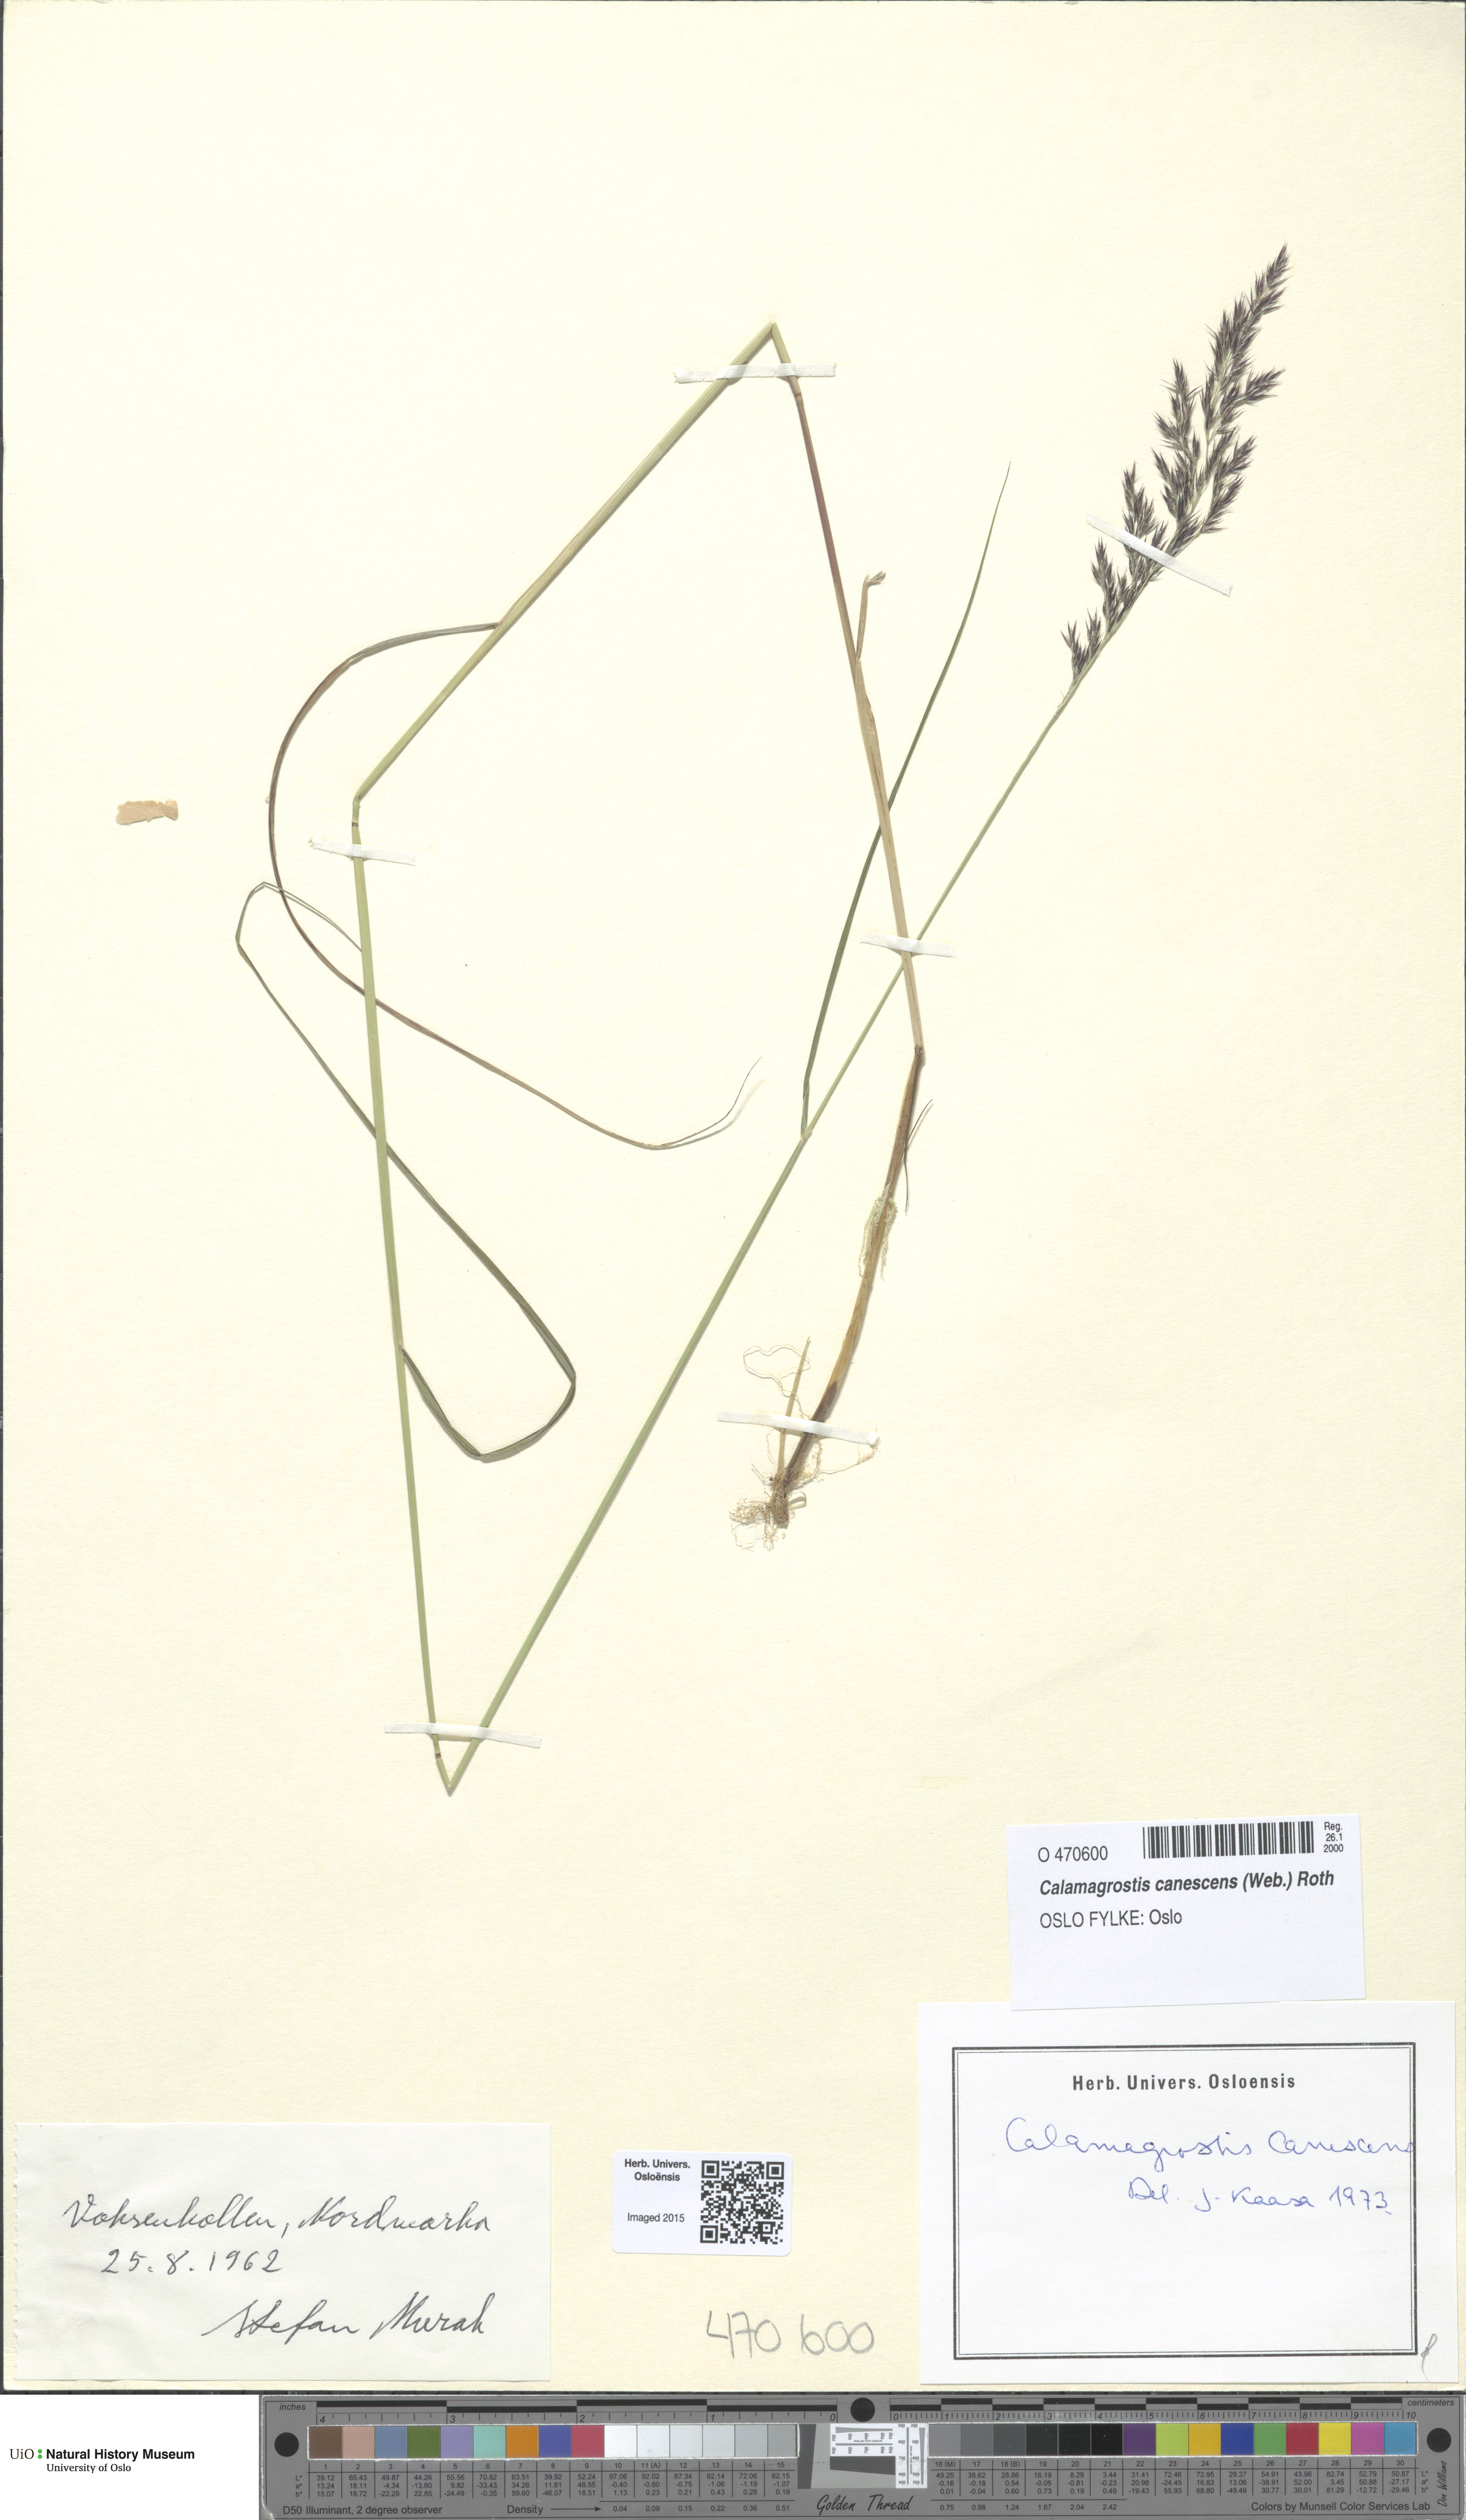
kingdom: Plantae
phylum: Tracheophyta
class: Liliopsida
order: Poales
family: Poaceae
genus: Calamagrostis
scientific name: Calamagrostis canescens
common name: Purple small-reed
